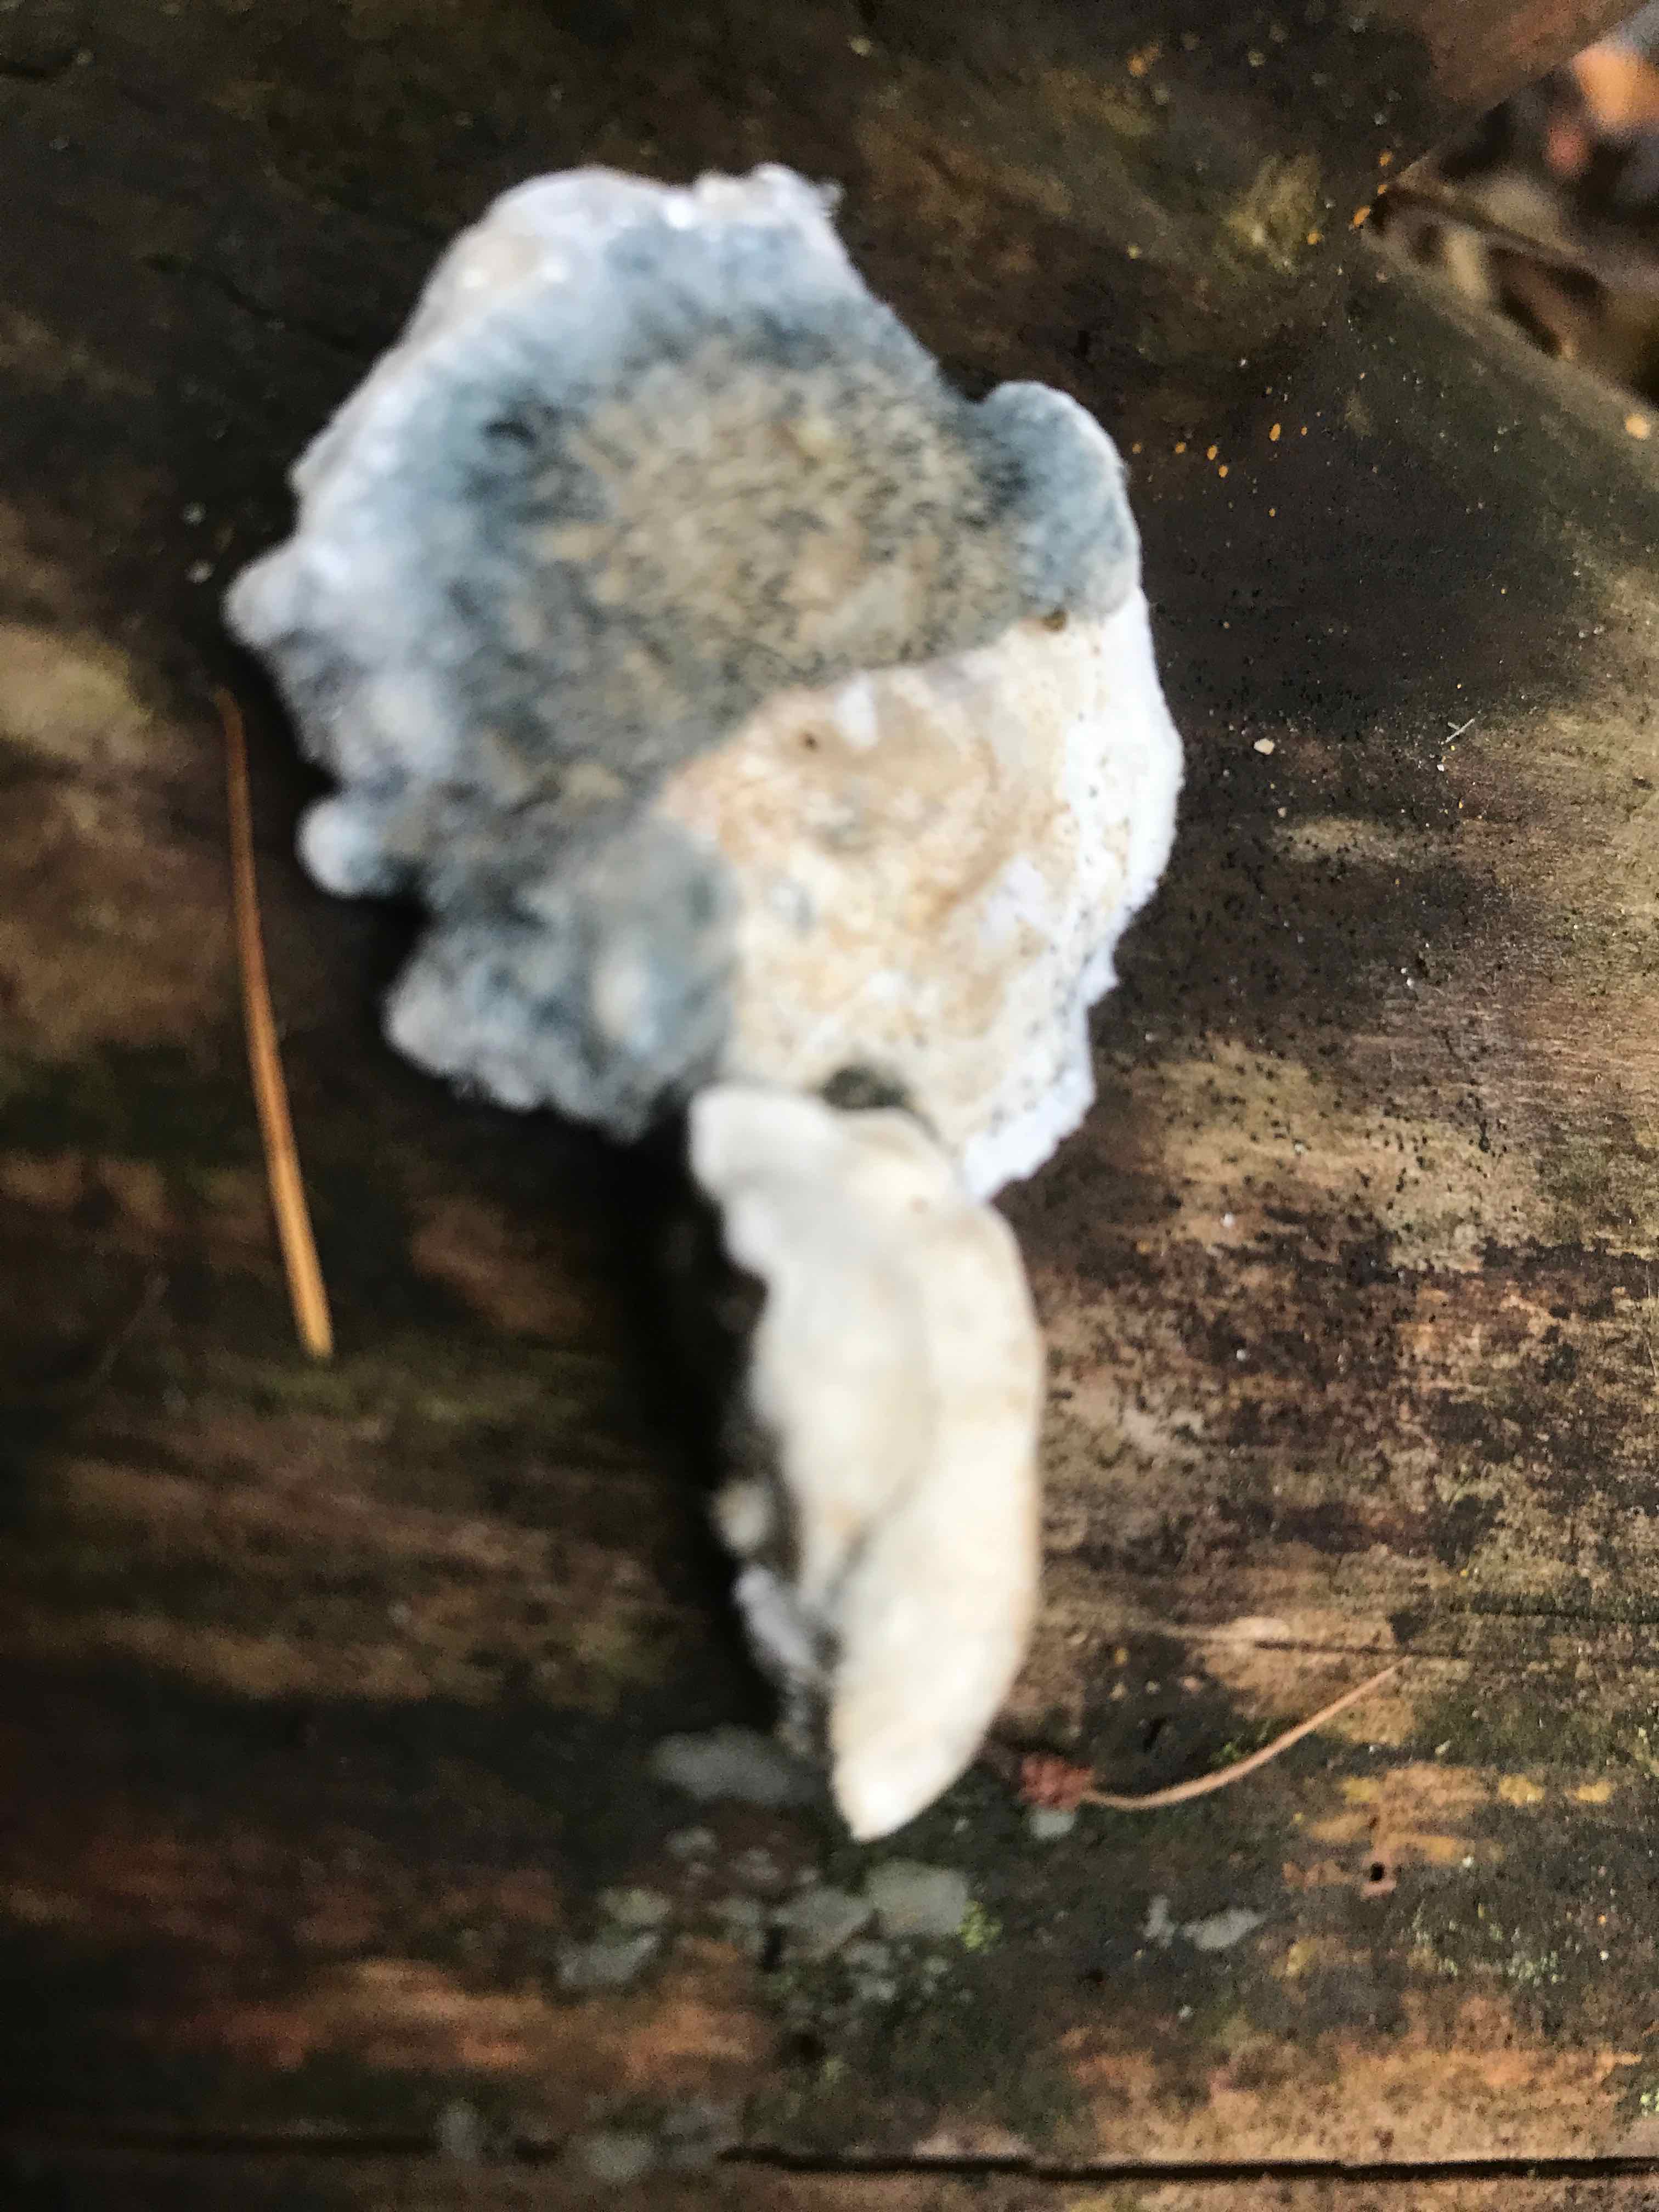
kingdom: Fungi
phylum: Basidiomycota
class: Agaricomycetes
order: Polyporales
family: Polyporaceae
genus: Cyanosporus
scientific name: Cyanosporus caesius
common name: blålig kødporesvamp
